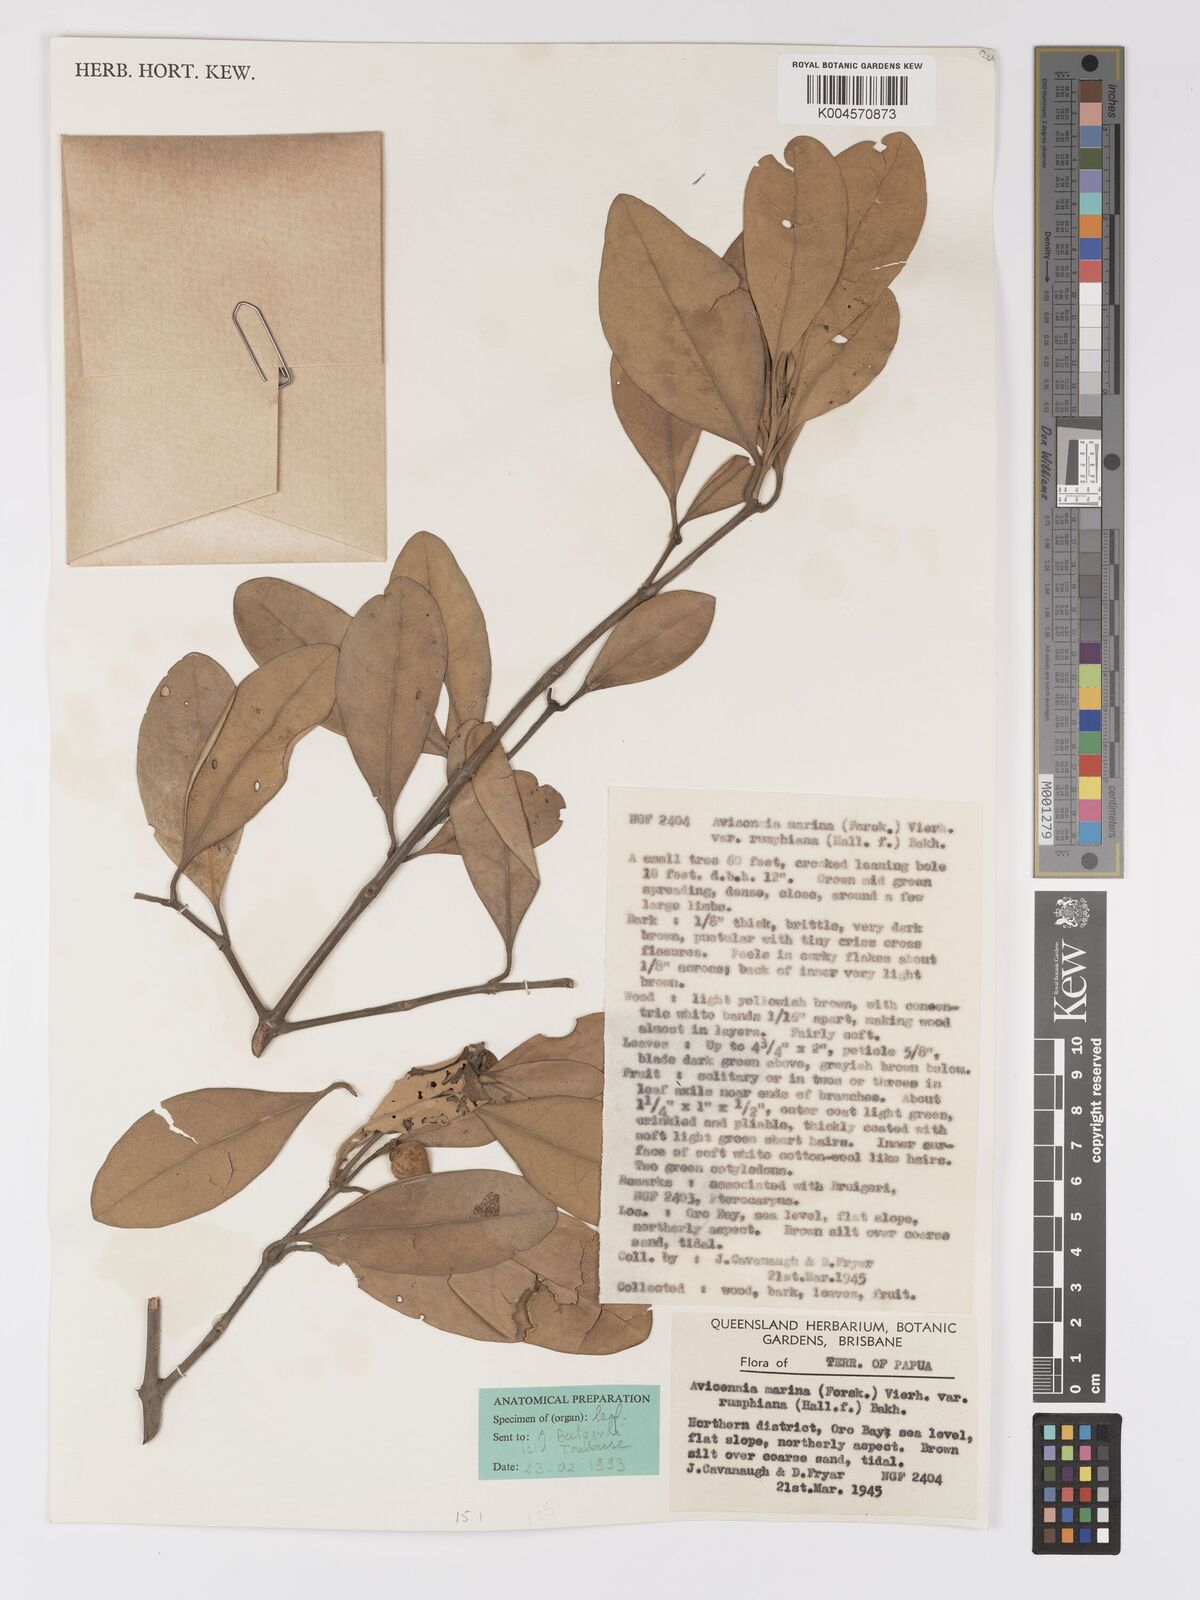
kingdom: Plantae
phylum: Tracheophyta
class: Magnoliopsida
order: Lamiales
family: Acanthaceae
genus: Avicennia
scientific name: Avicennia marina
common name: Gray mangrove
